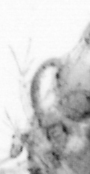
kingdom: Animalia
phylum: Arthropoda
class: Copepoda
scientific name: Copepoda
